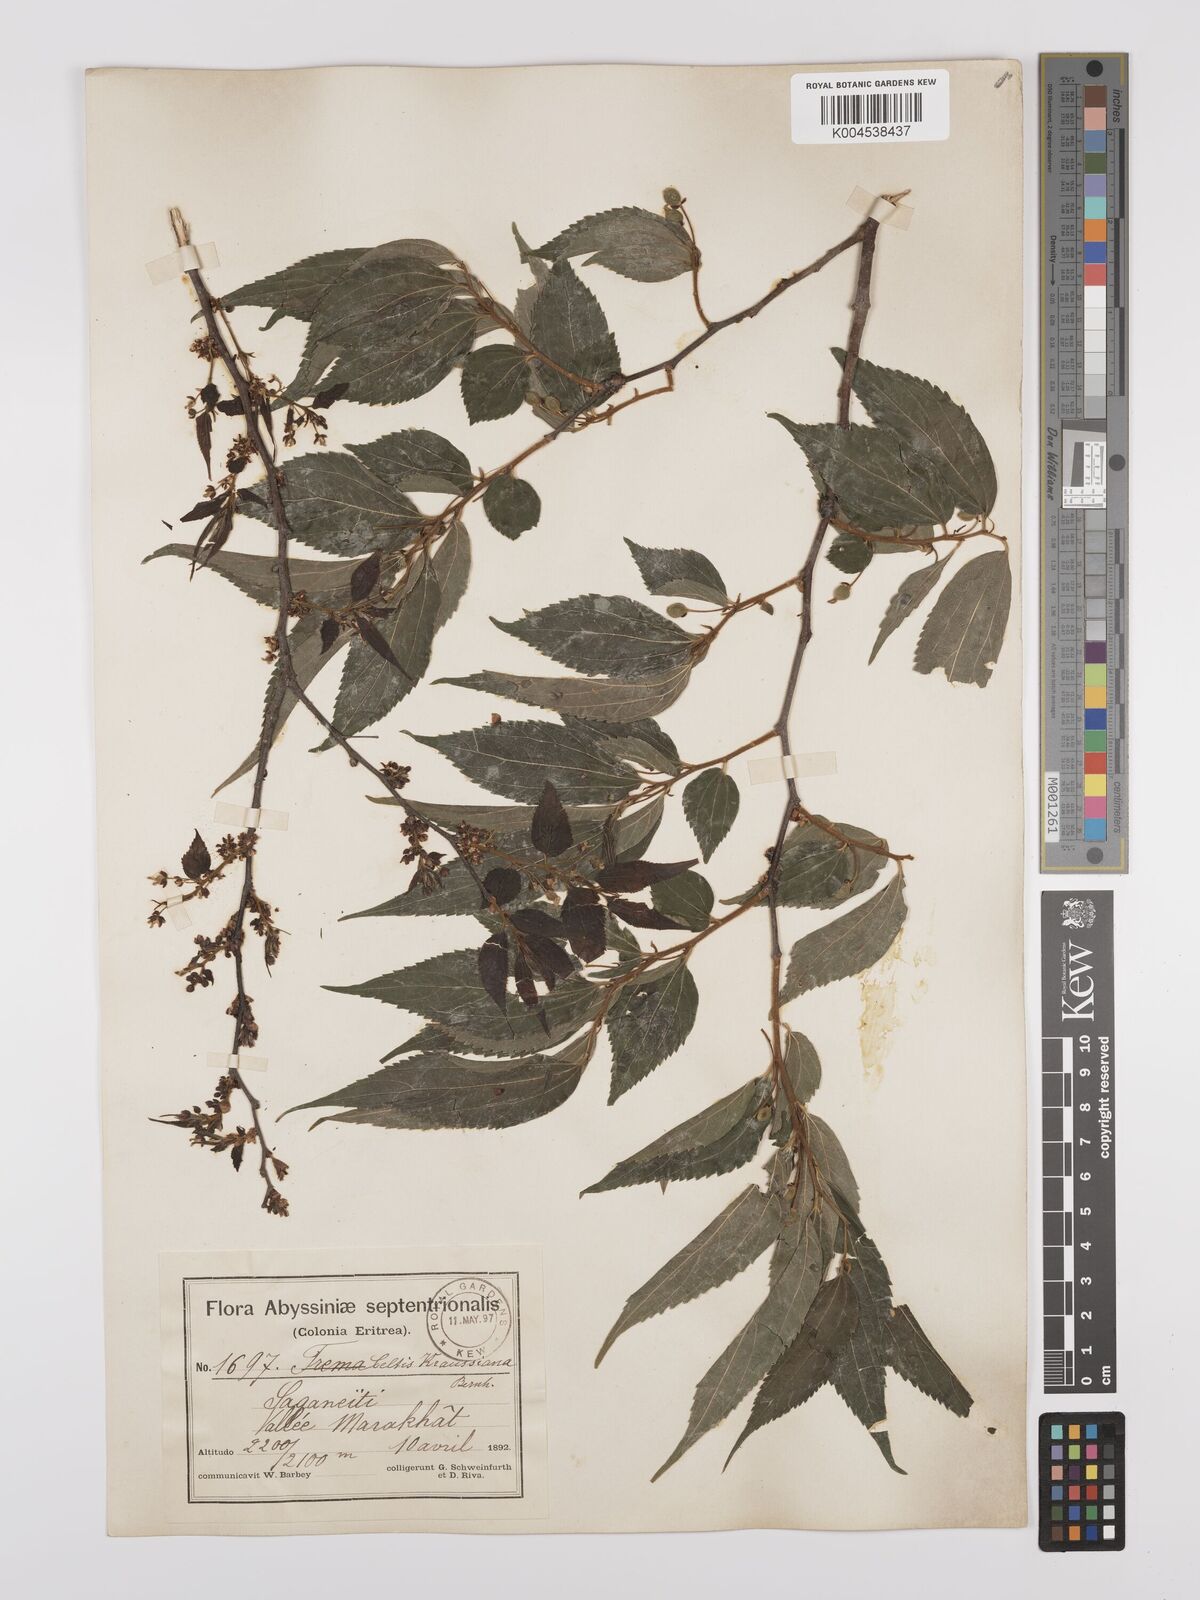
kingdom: Plantae
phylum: Tracheophyta
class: Magnoliopsida
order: Rosales
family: Cannabaceae
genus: Celtis
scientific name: Celtis africana
